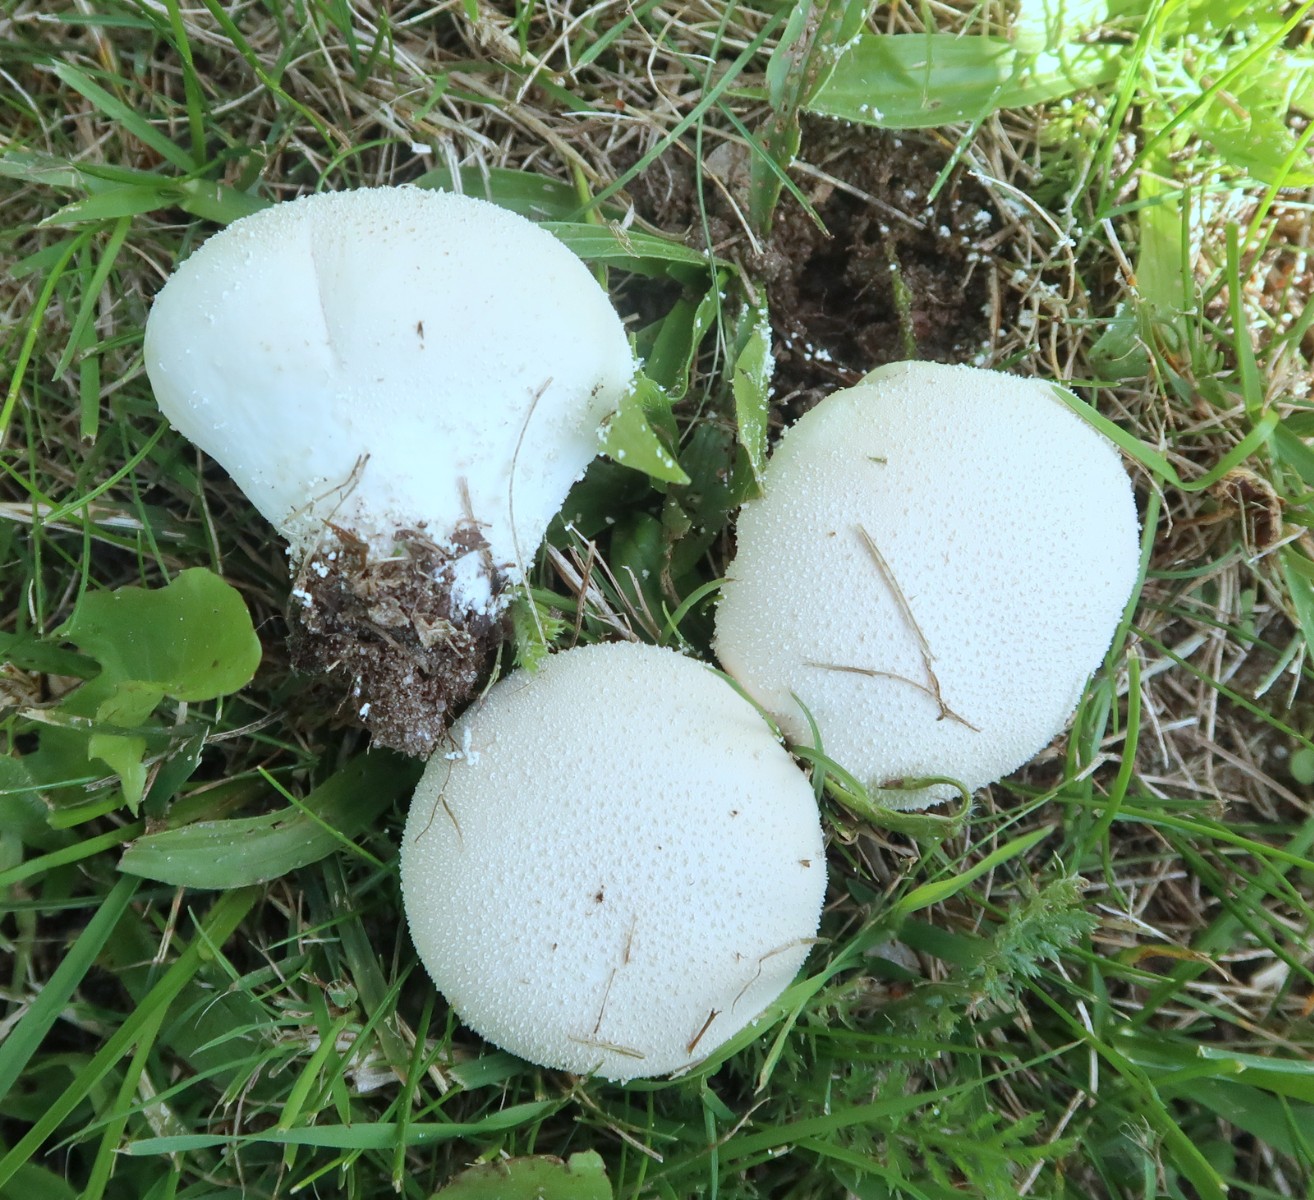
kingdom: Fungi
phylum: Basidiomycota
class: Agaricomycetes
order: Agaricales
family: Lycoperdaceae
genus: Lycoperdon
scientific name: Lycoperdon pratense
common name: flad støvbold
